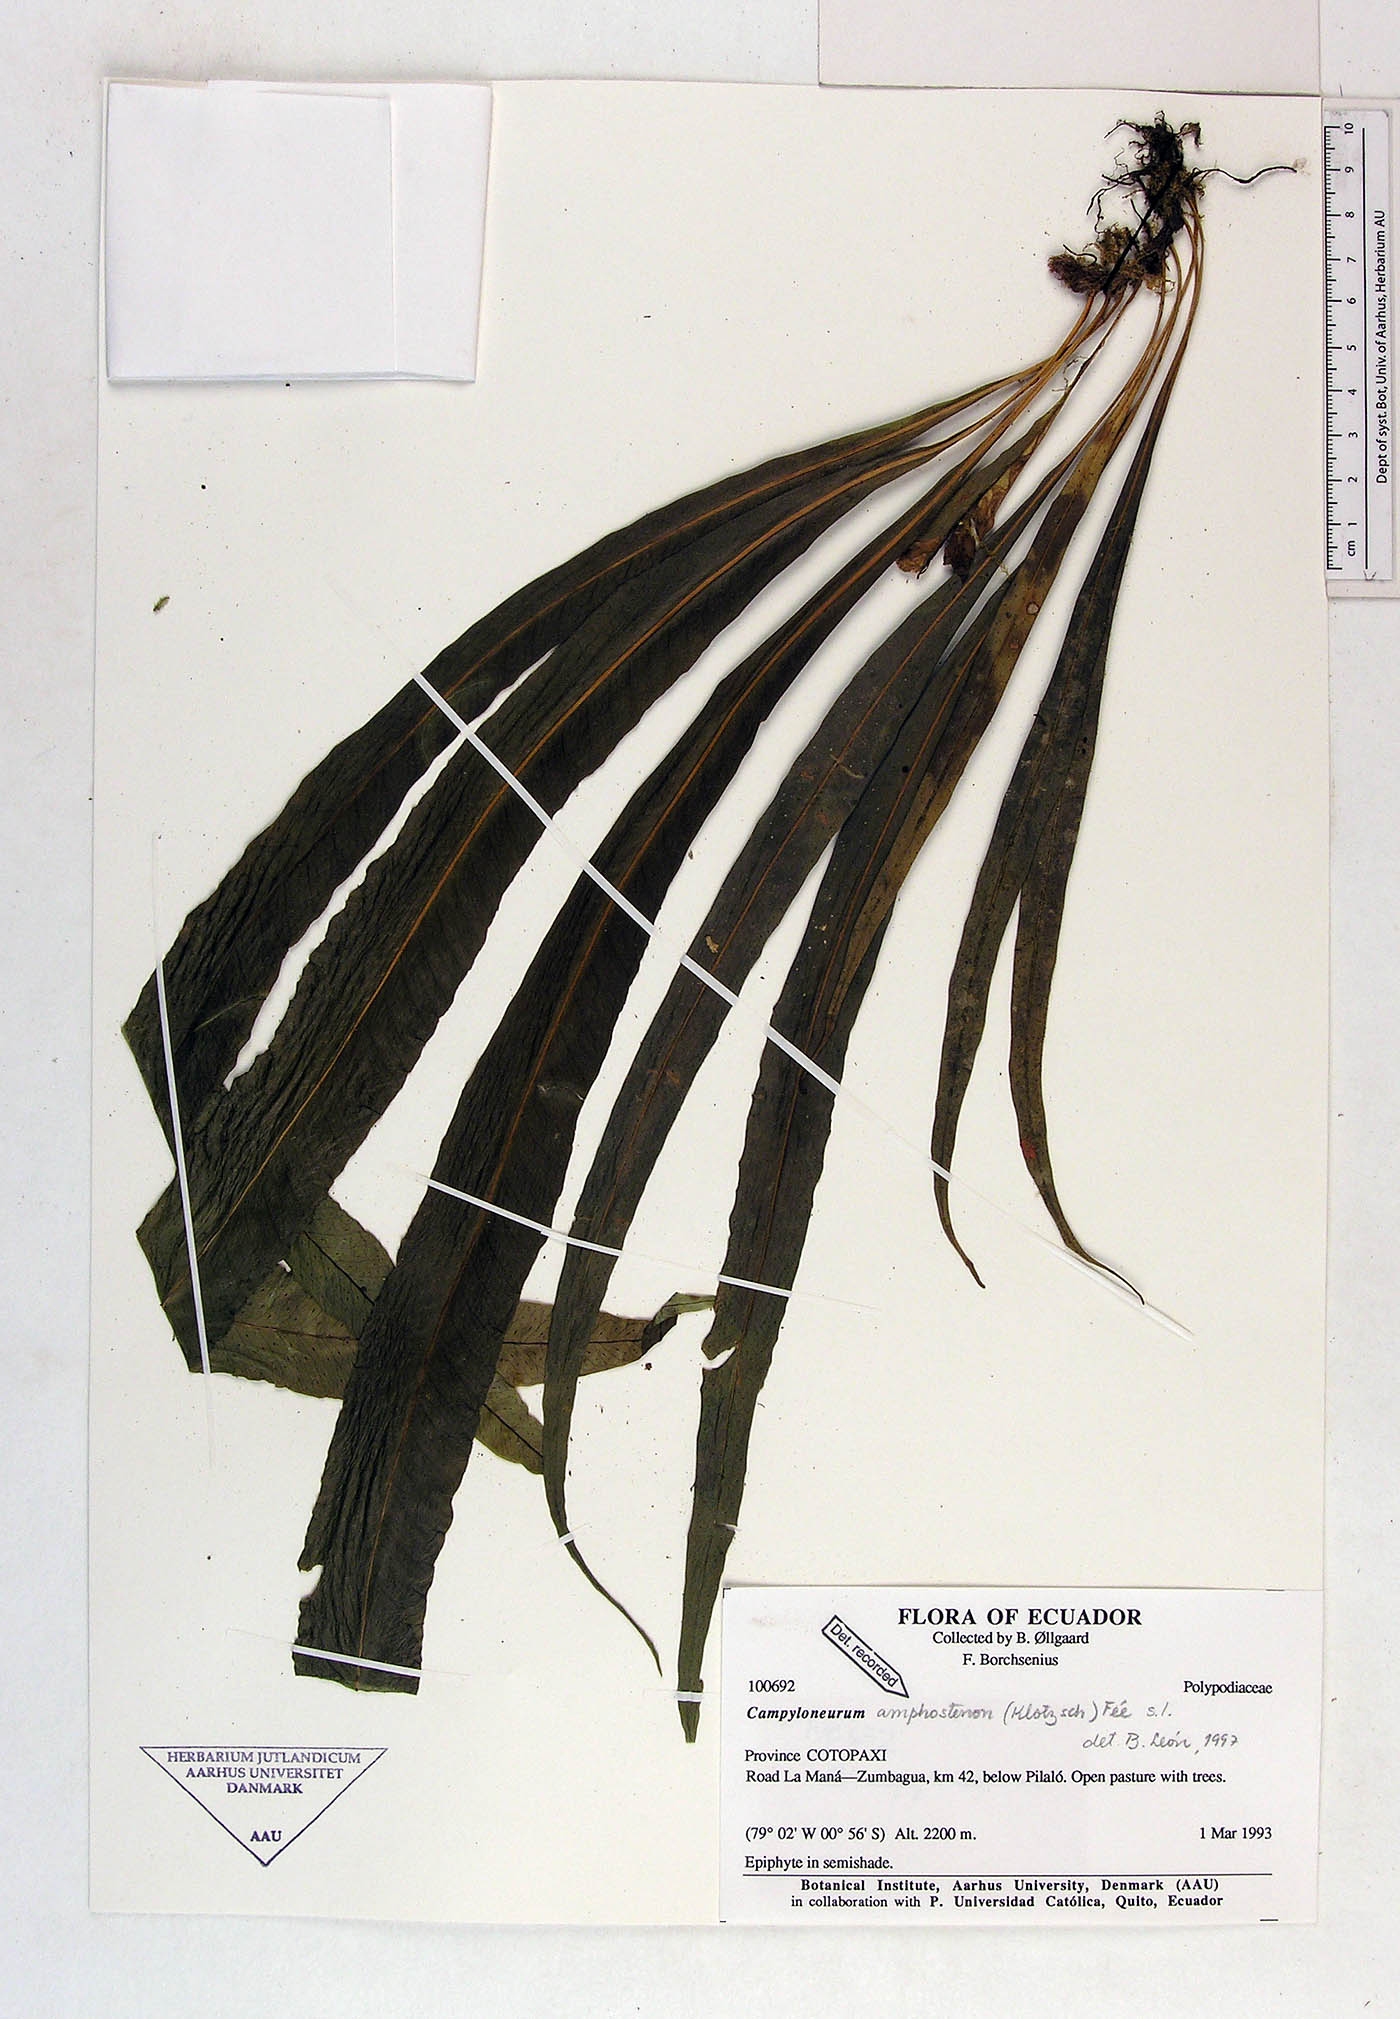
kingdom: Plantae
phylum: Tracheophyta
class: Polypodiopsida
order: Polypodiales
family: Polypodiaceae
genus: Campyloneurum
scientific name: Campyloneurum amphostenon
